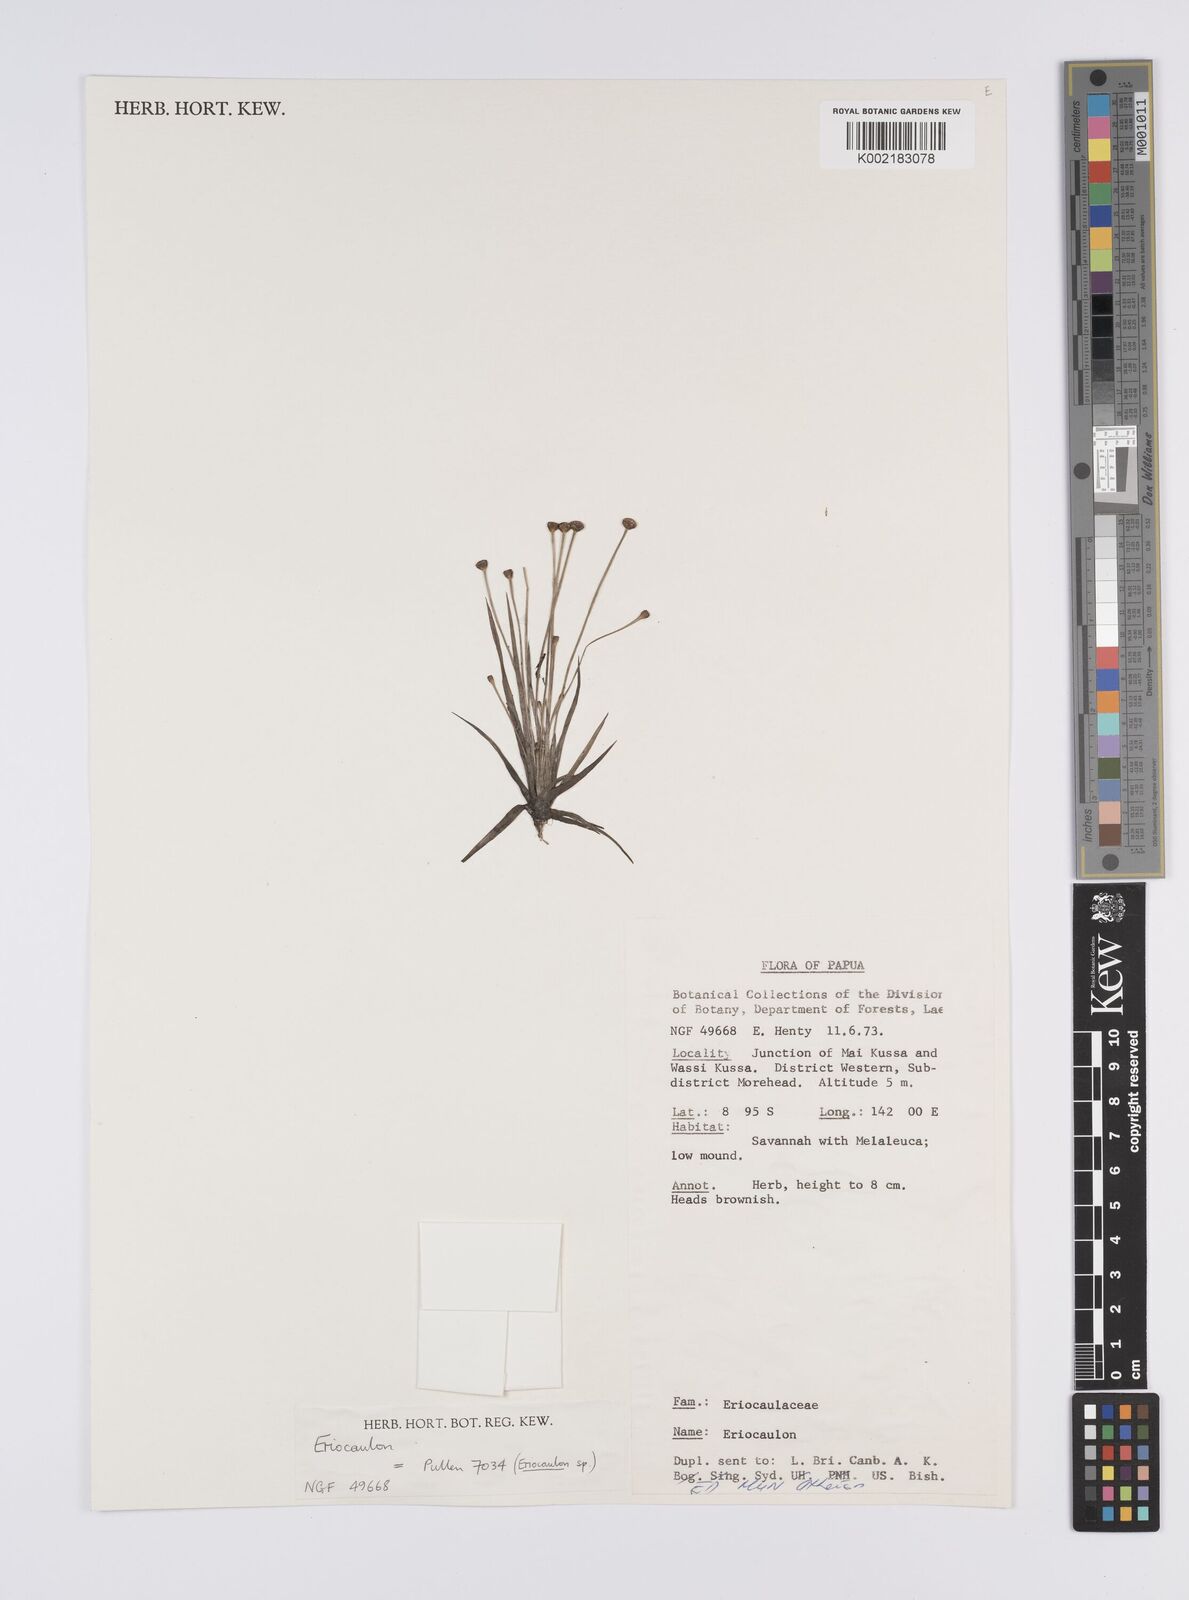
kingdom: Plantae
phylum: Tracheophyta
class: Liliopsida
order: Poales
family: Eriocaulaceae
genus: Eriocaulon
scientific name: Eriocaulon
